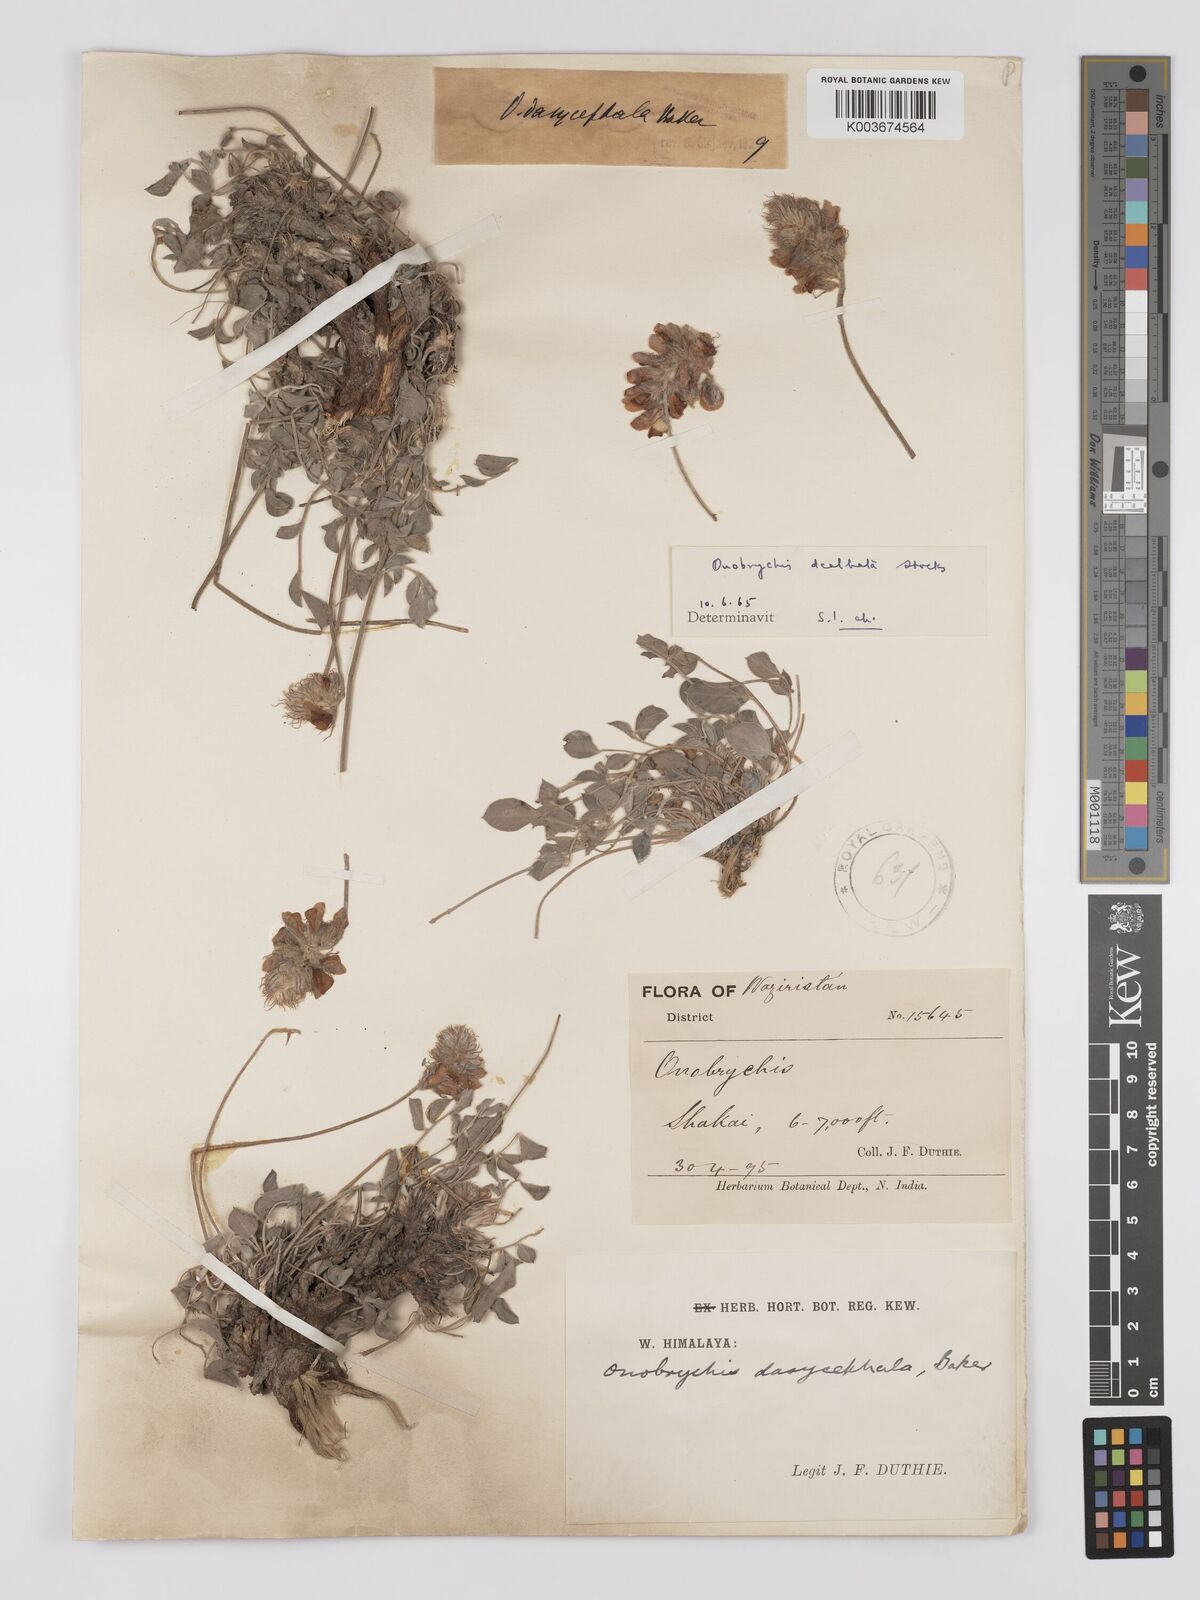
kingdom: Plantae
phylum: Tracheophyta
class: Magnoliopsida
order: Fabales
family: Fabaceae
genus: Onobrychis
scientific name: Onobrychis dealbata
